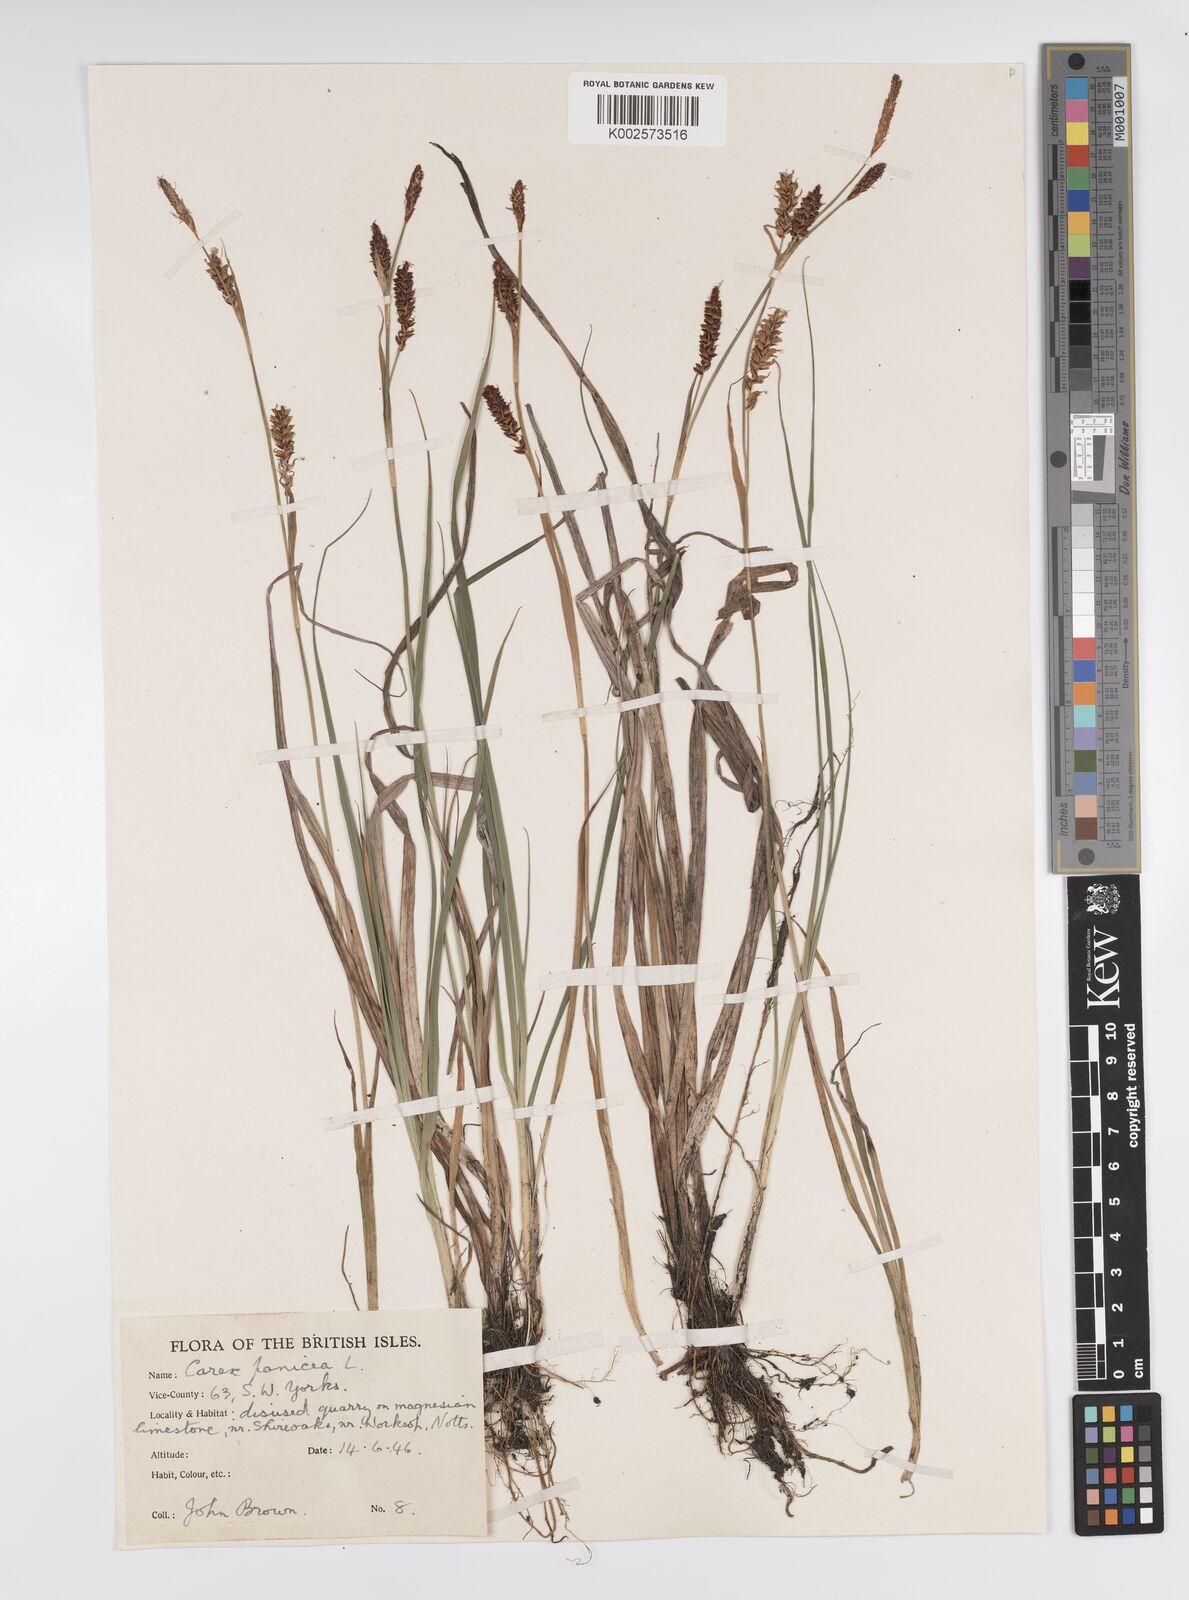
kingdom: Plantae
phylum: Tracheophyta
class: Liliopsida
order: Poales
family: Cyperaceae
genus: Carex
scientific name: Carex panicea
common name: Carnation sedge
